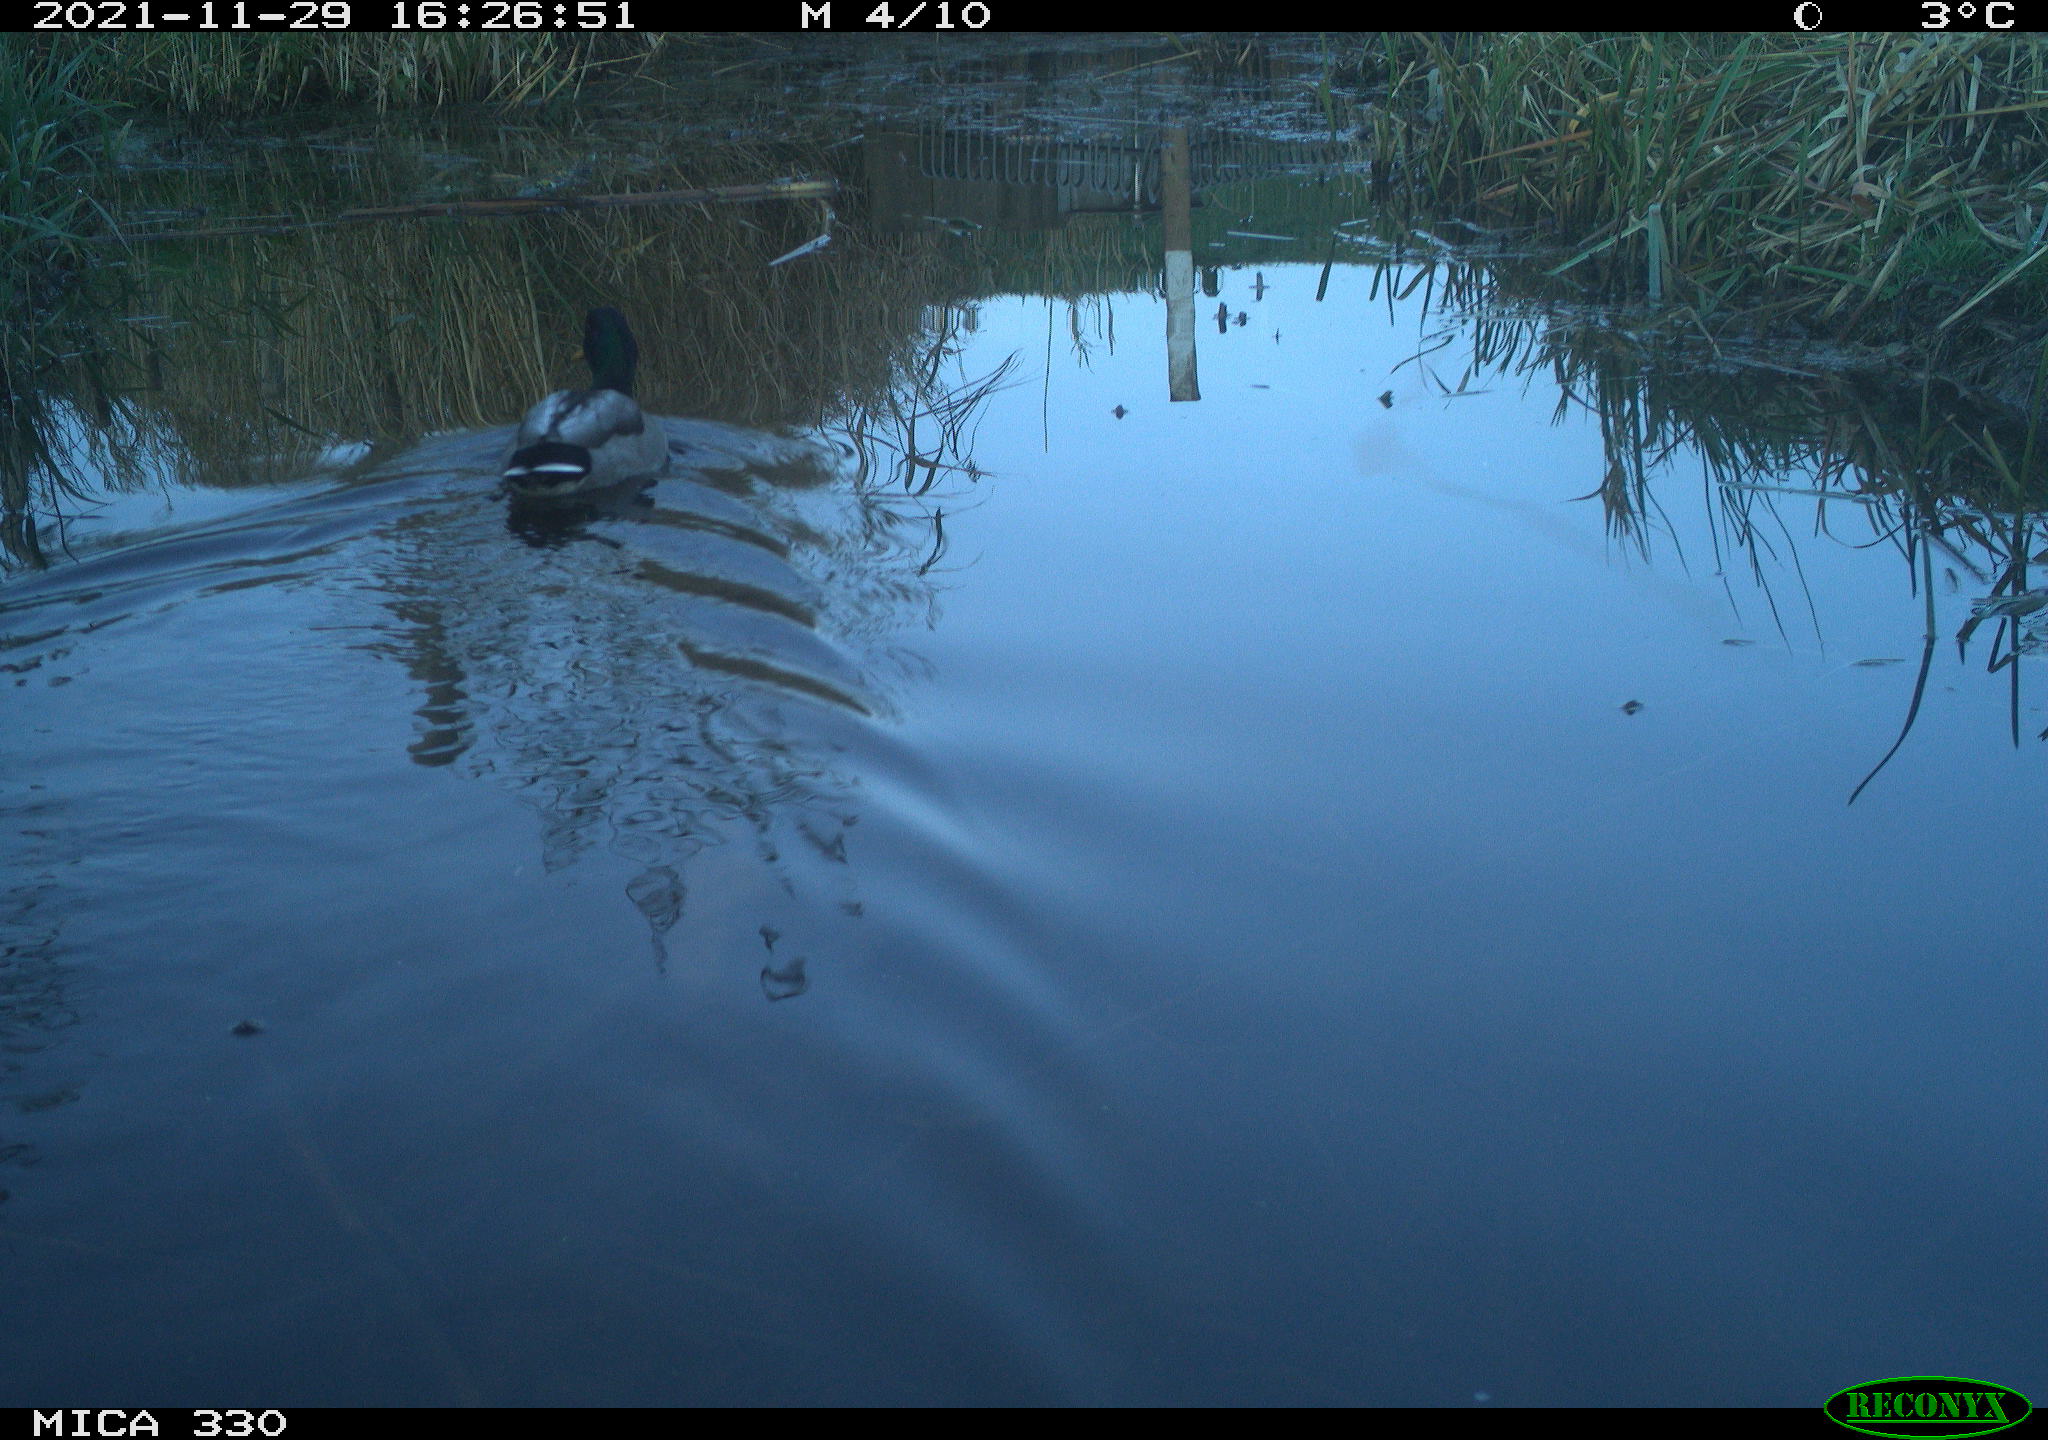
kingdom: Animalia
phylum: Chordata
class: Aves
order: Anseriformes
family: Anatidae
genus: Anas
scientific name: Anas platyrhynchos
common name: Mallard
